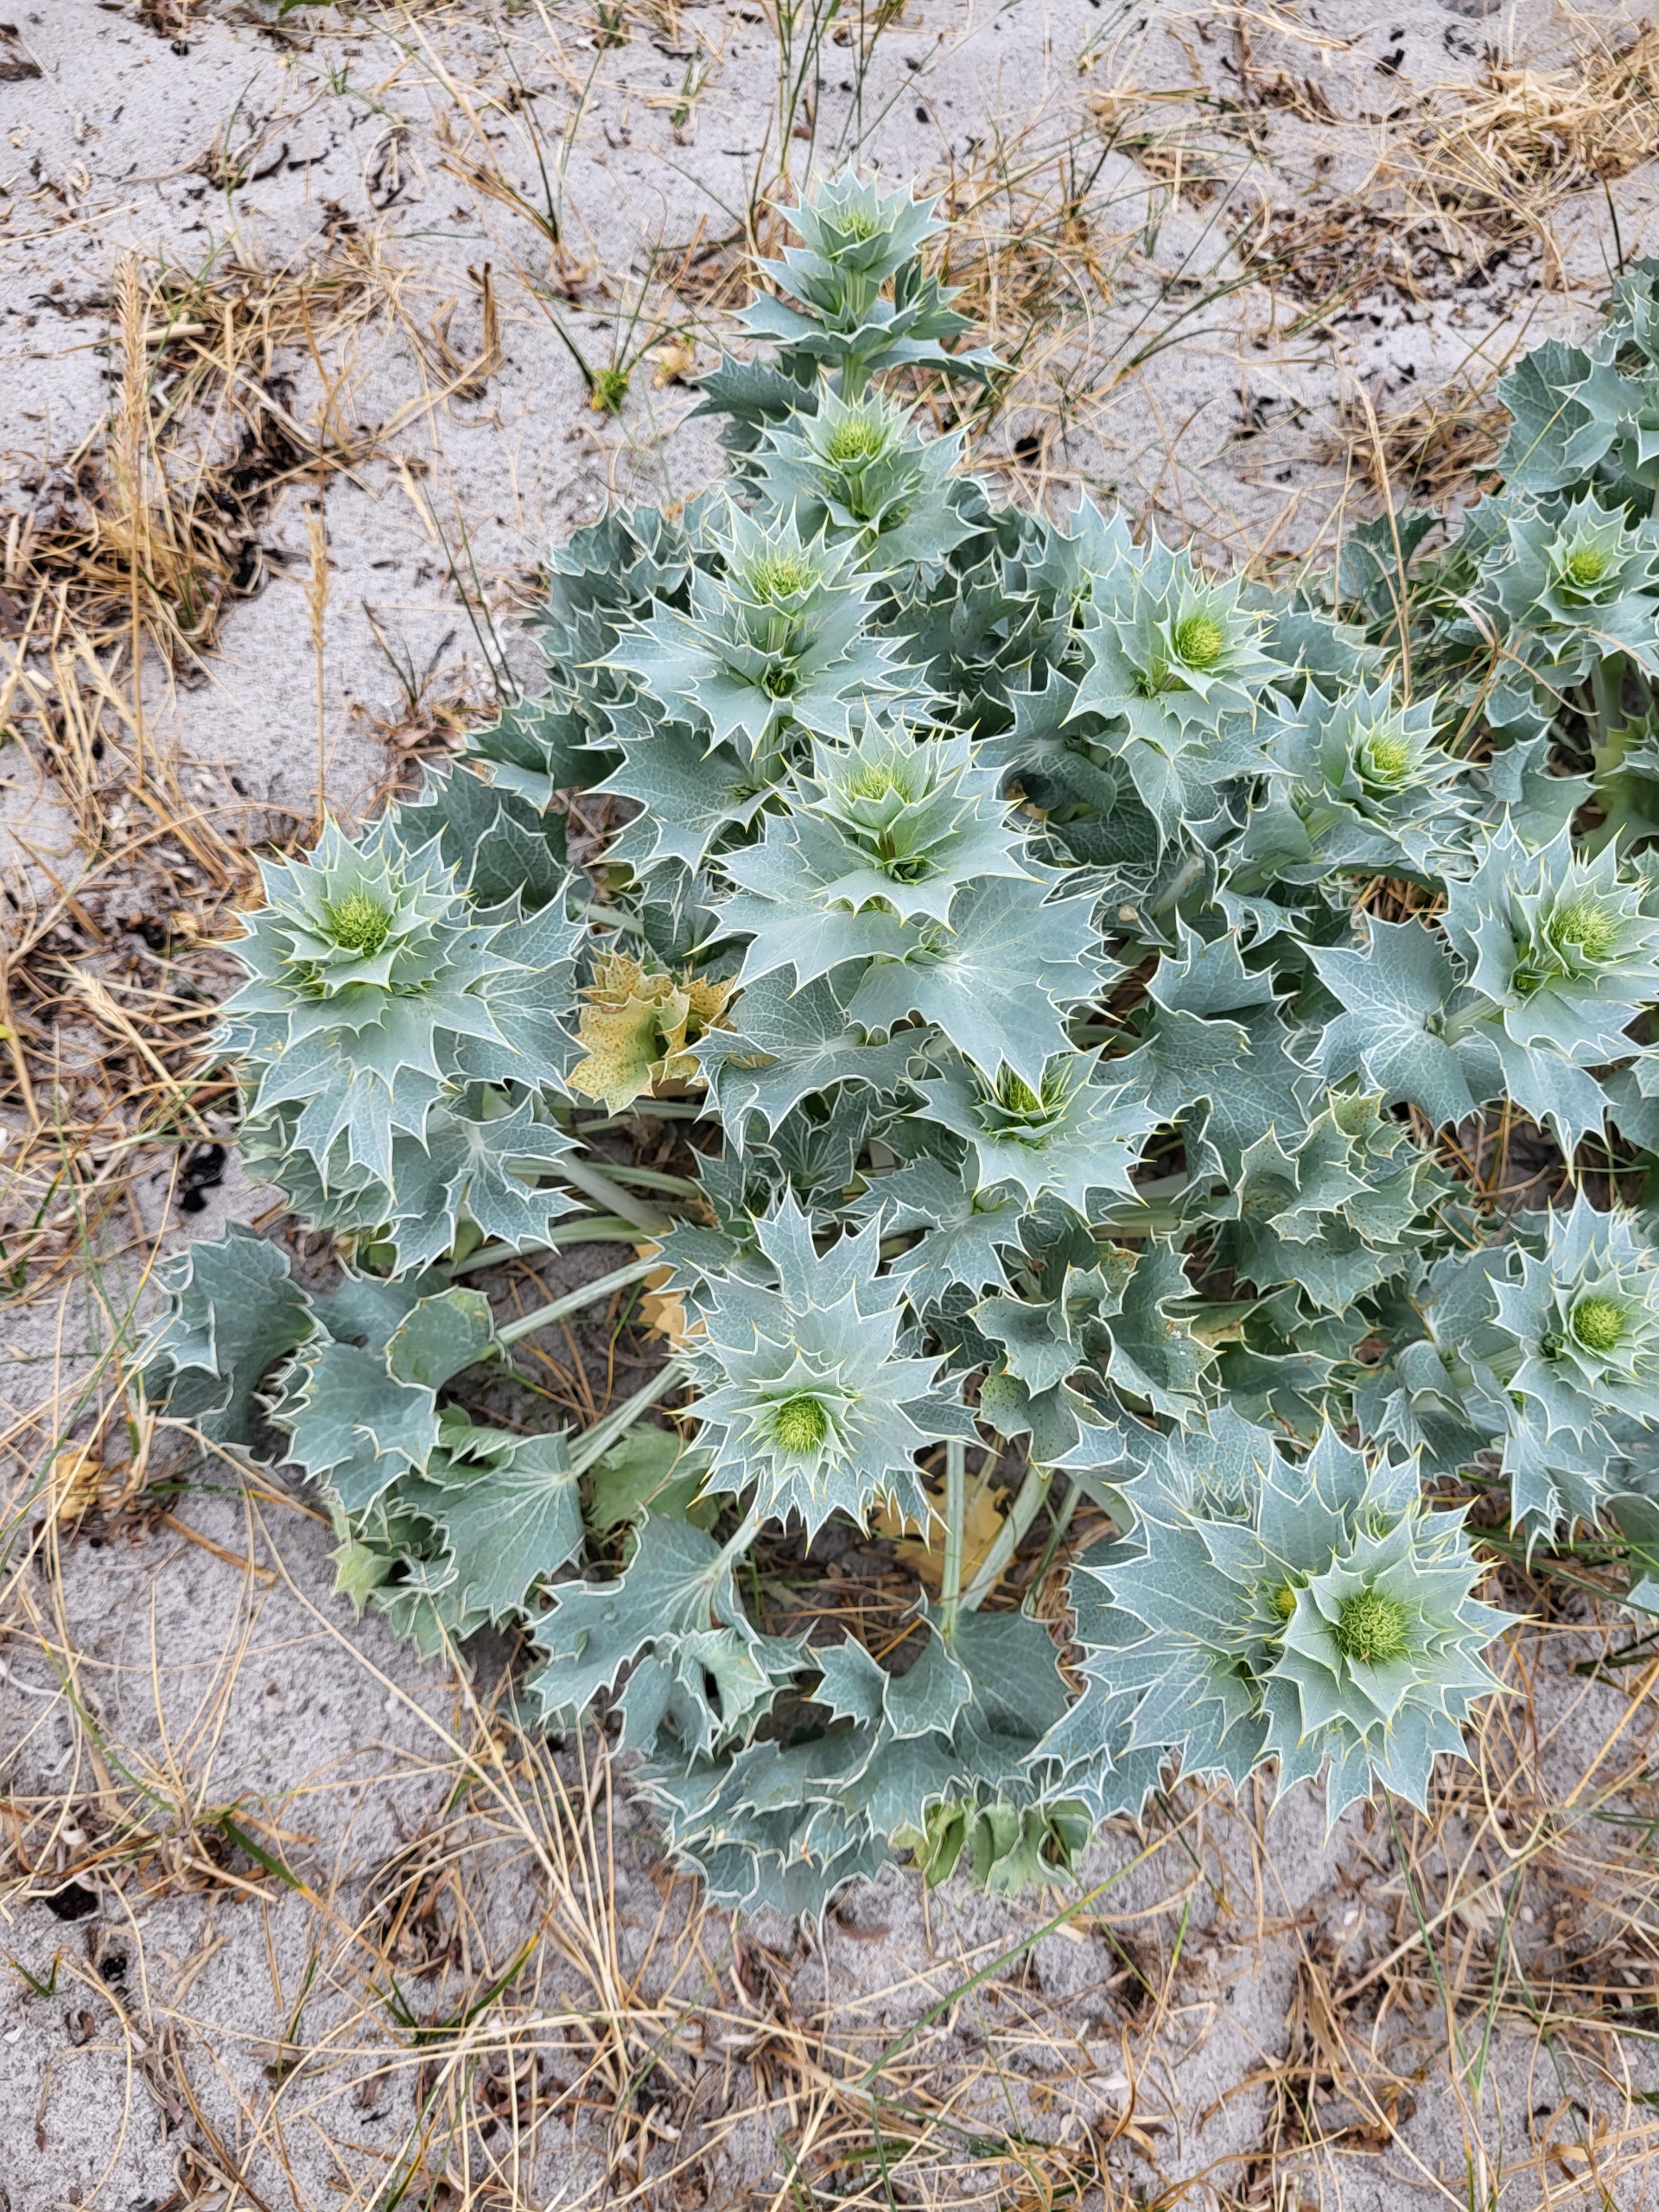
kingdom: Plantae
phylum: Tracheophyta
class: Magnoliopsida
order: Apiales
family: Apiaceae
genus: Eryngium
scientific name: Eryngium maritimum
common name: Strand-mandstro
